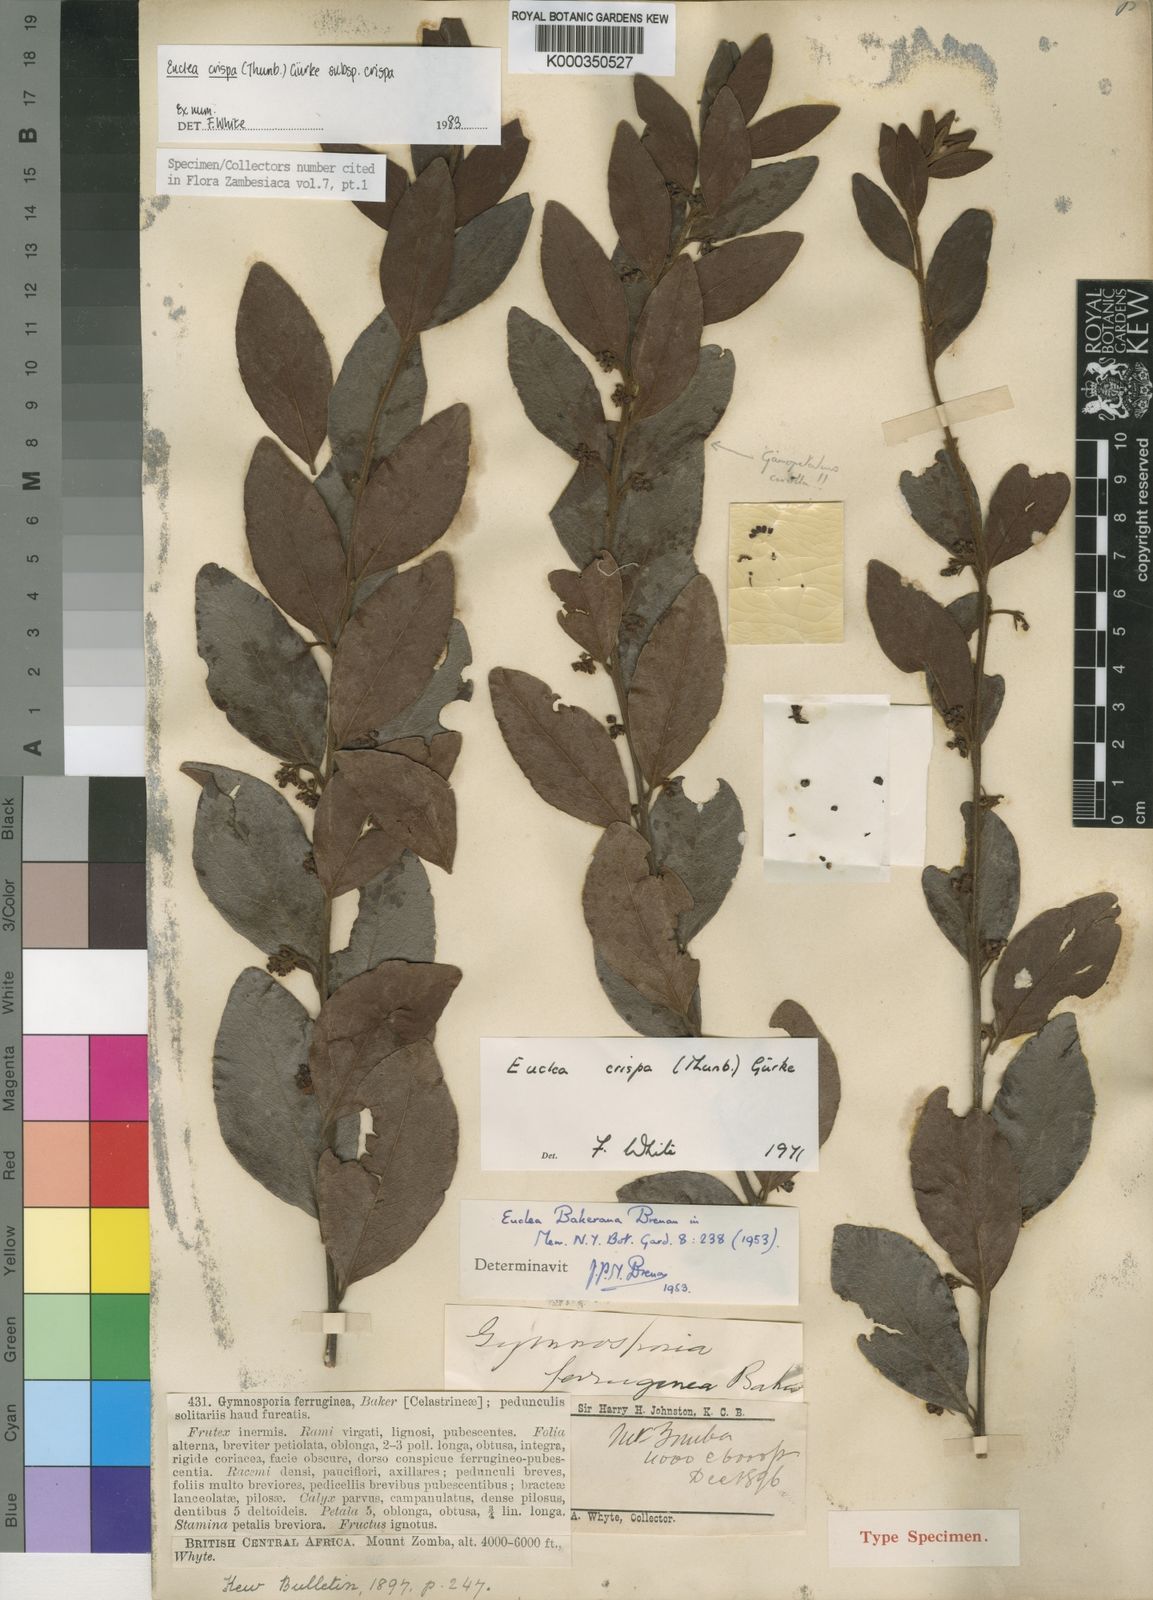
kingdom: Plantae
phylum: Tracheophyta
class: Magnoliopsida
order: Ericales
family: Ebenaceae
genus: Euclea
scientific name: Euclea
